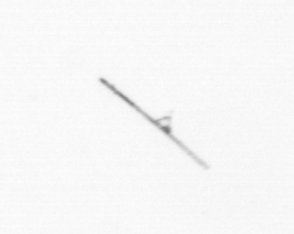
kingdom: Chromista
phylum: Ochrophyta
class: Bacillariophyceae
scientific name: Bacillariophyceae
